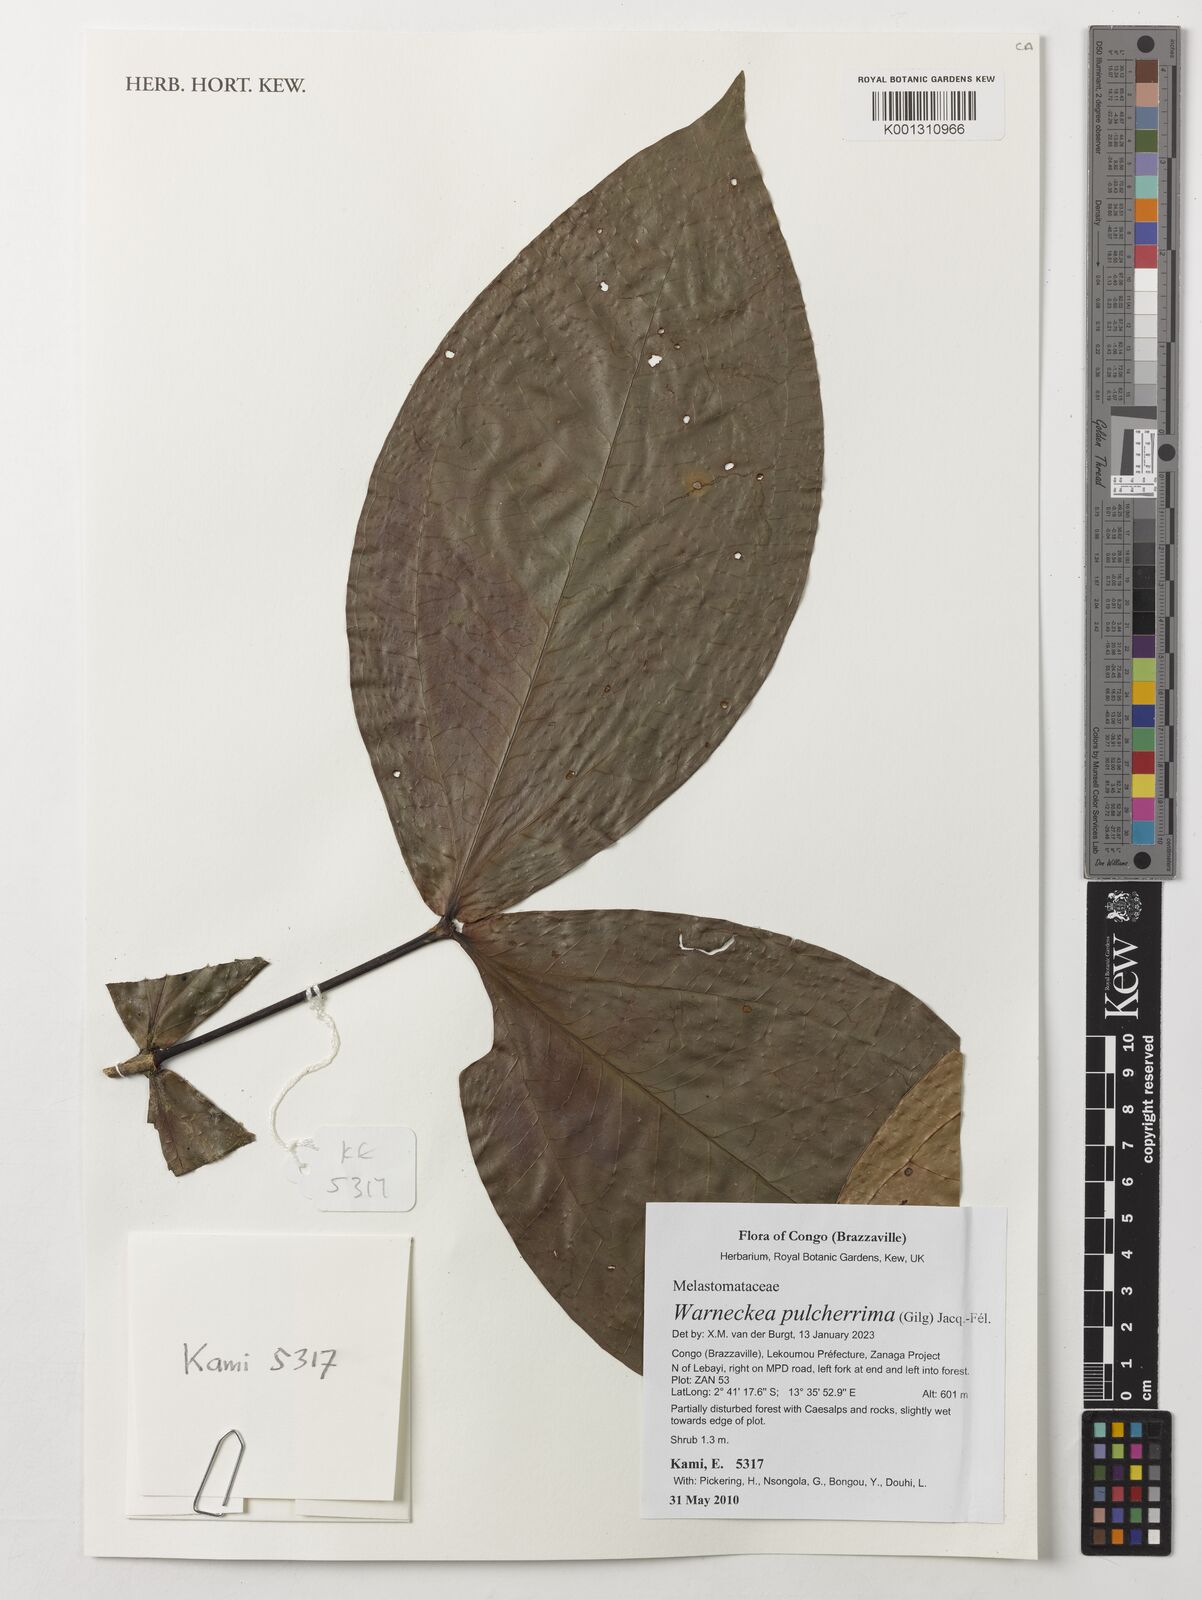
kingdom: Plantae
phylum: Tracheophyta
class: Magnoliopsida
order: Myrtales
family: Melastomataceae
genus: Warneckea
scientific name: Warneckea pulcherrima
